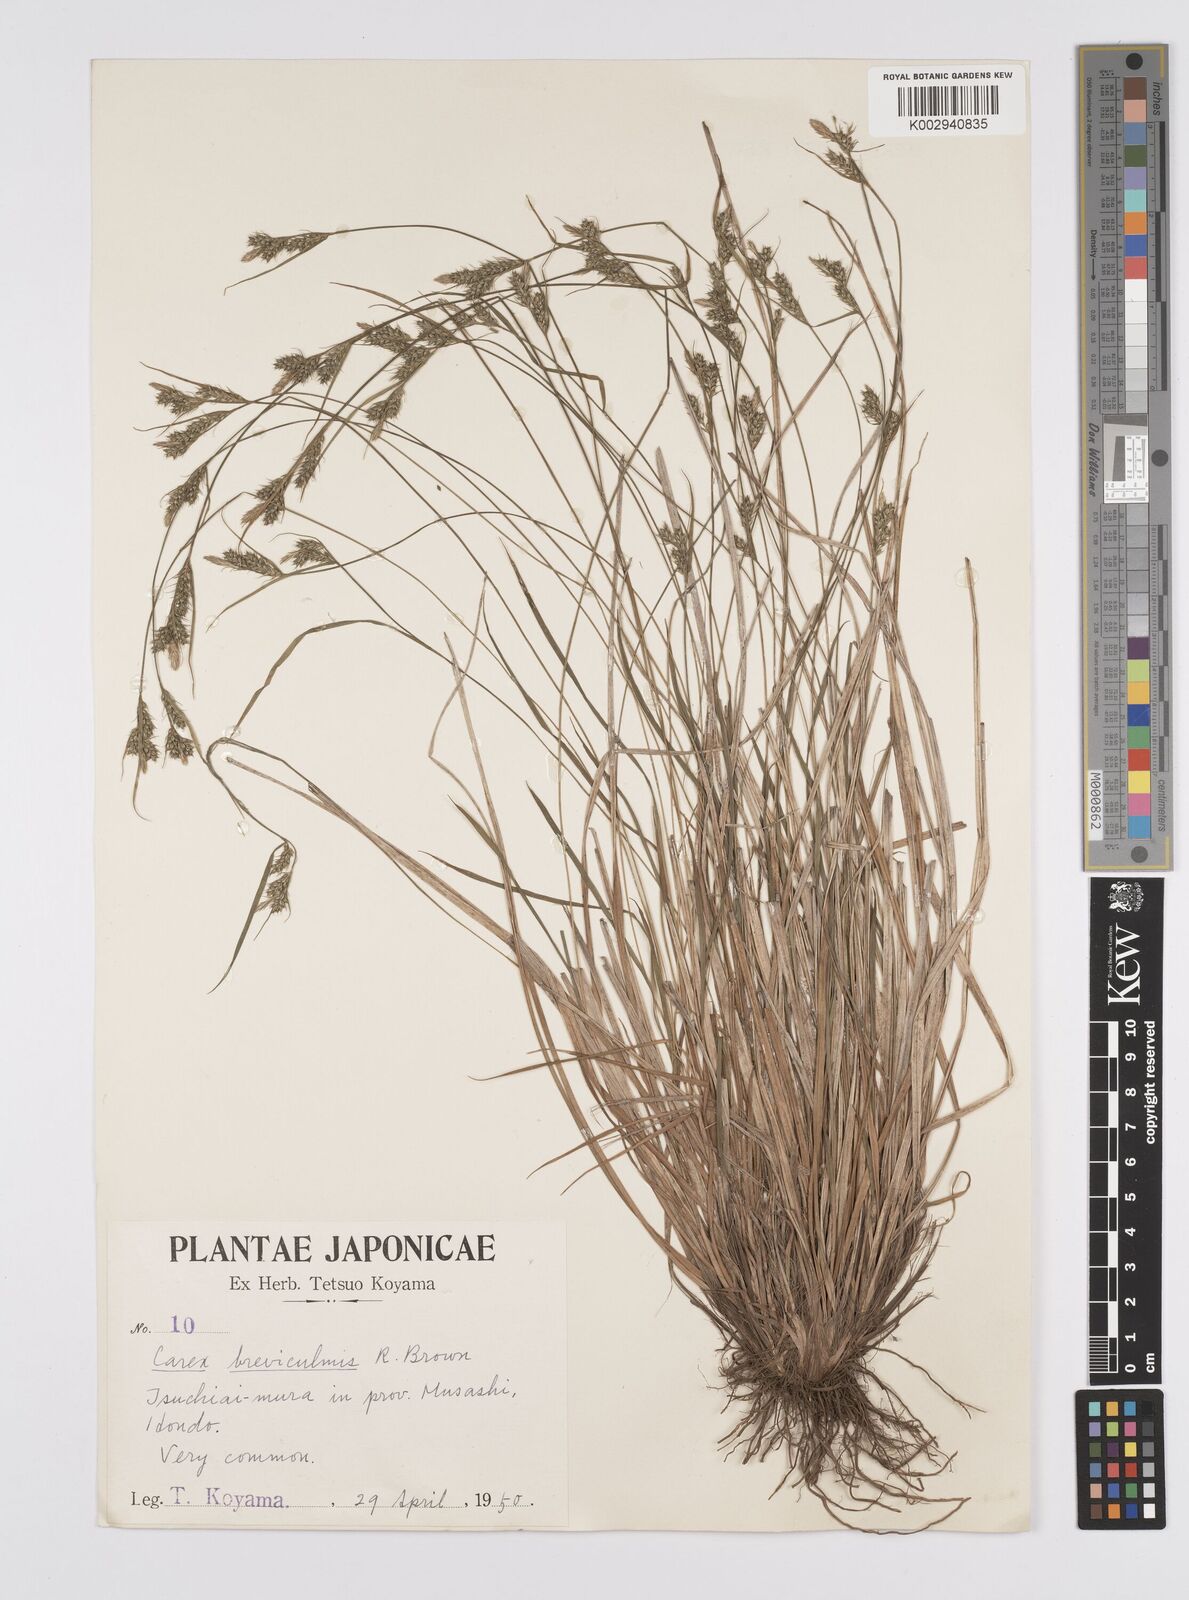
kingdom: Plantae
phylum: Tracheophyta
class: Liliopsida
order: Poales
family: Cyperaceae
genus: Carex
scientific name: Carex breviculmis
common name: Asian shortstem sedge
